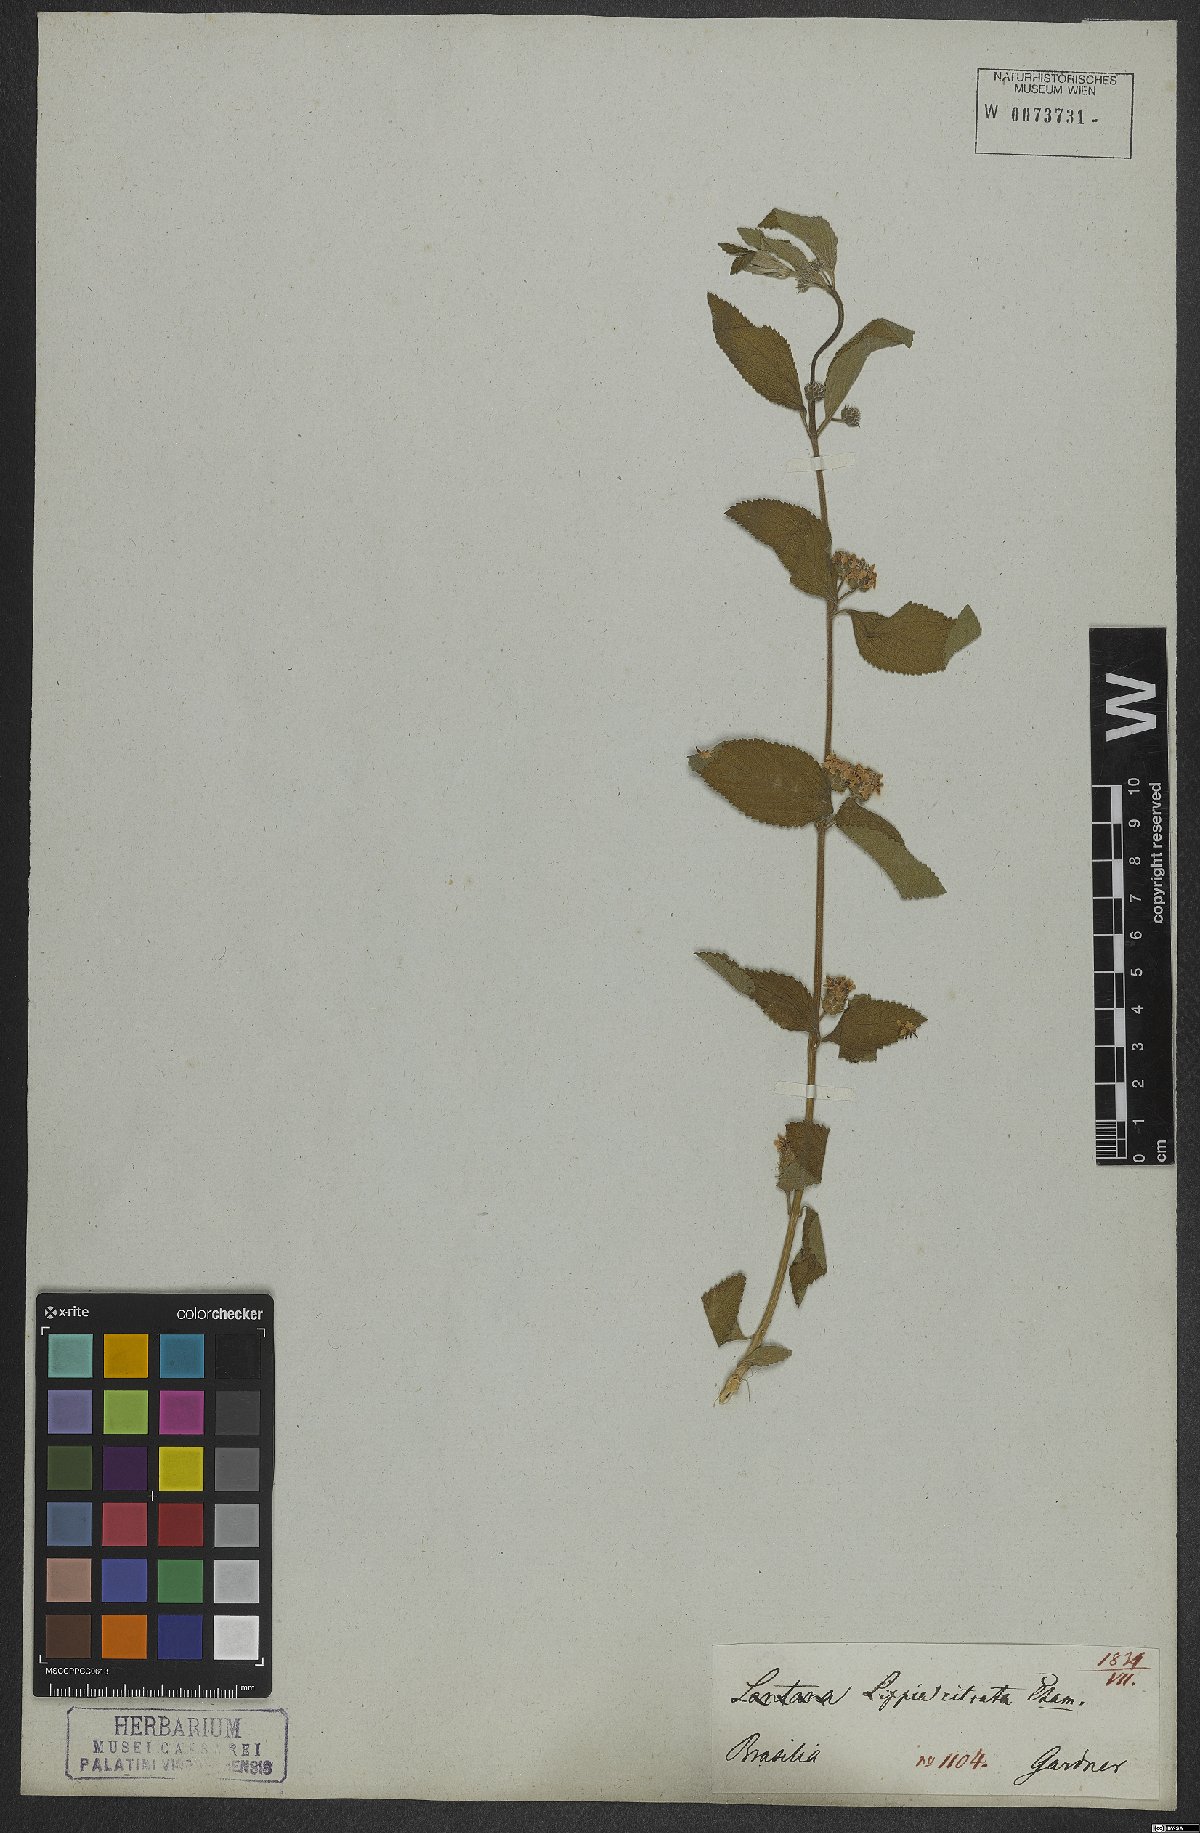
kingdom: Plantae
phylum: Tracheophyta
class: Magnoliopsida
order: Lamiales
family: Verbenaceae
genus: Lippia
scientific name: Lippia alba
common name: Bushy matgrass
